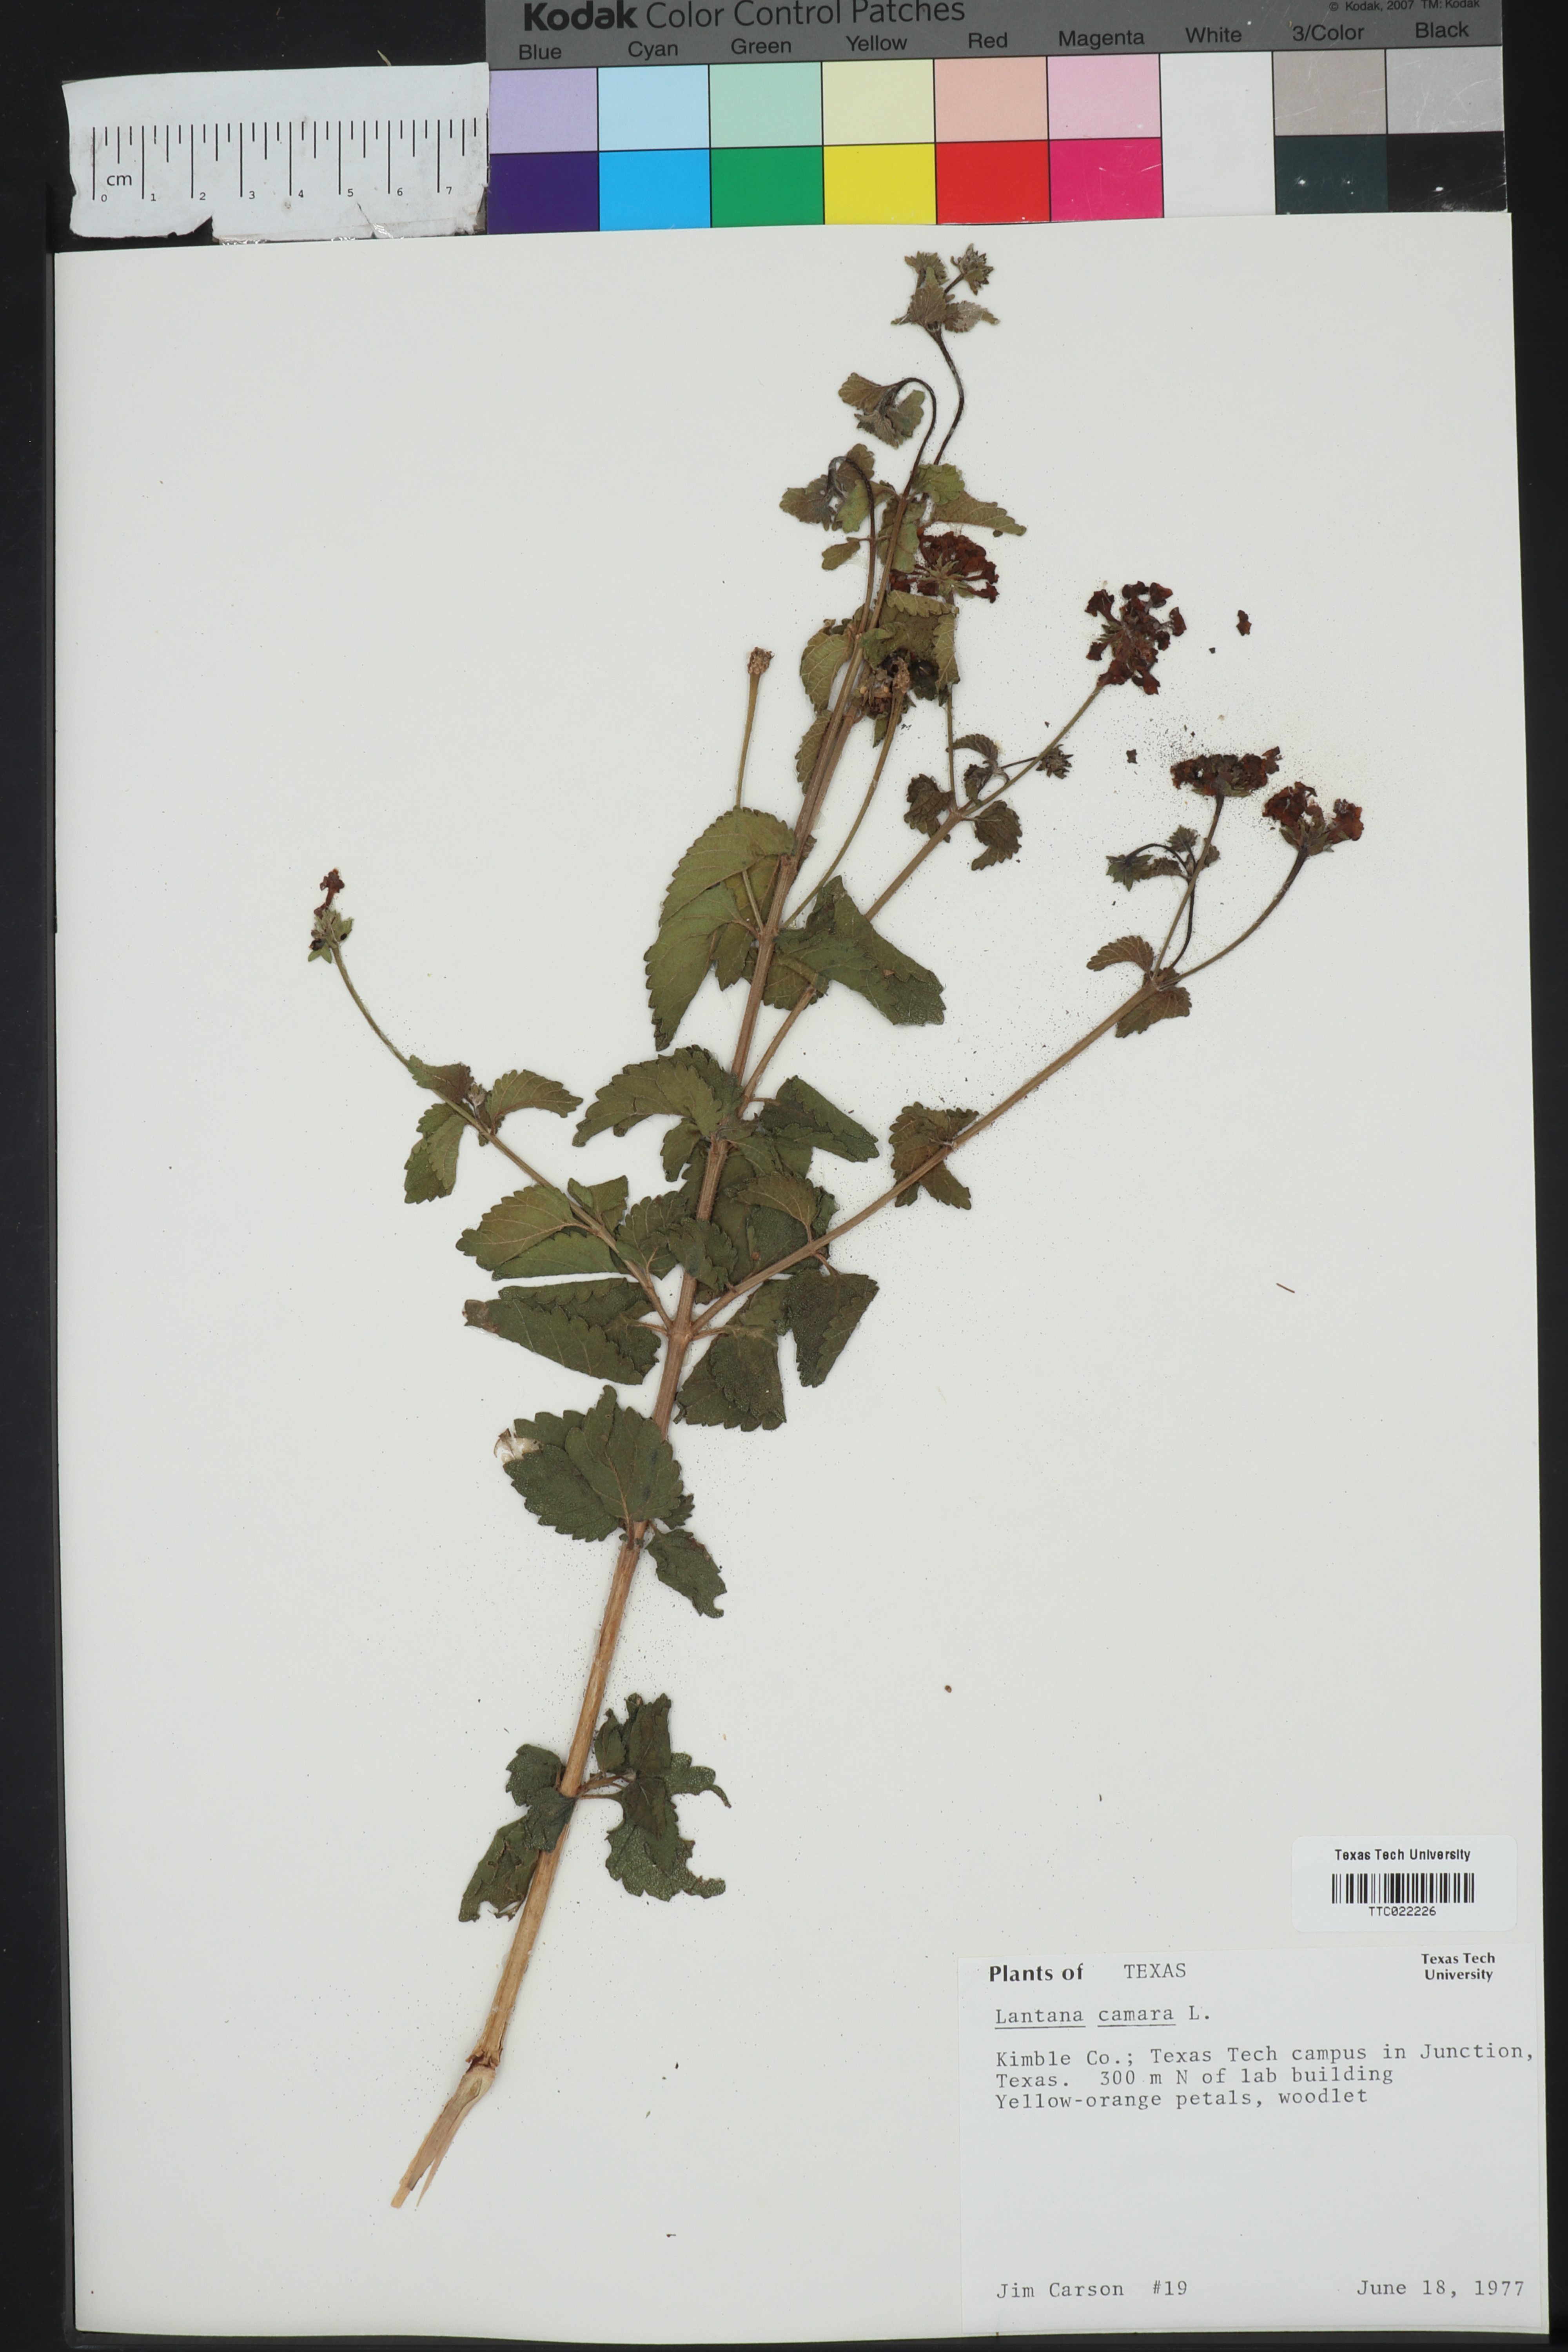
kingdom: Plantae
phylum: Tracheophyta
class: Magnoliopsida
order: Lamiales
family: Verbenaceae
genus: Lantana
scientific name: Lantana camara
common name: Lantana
